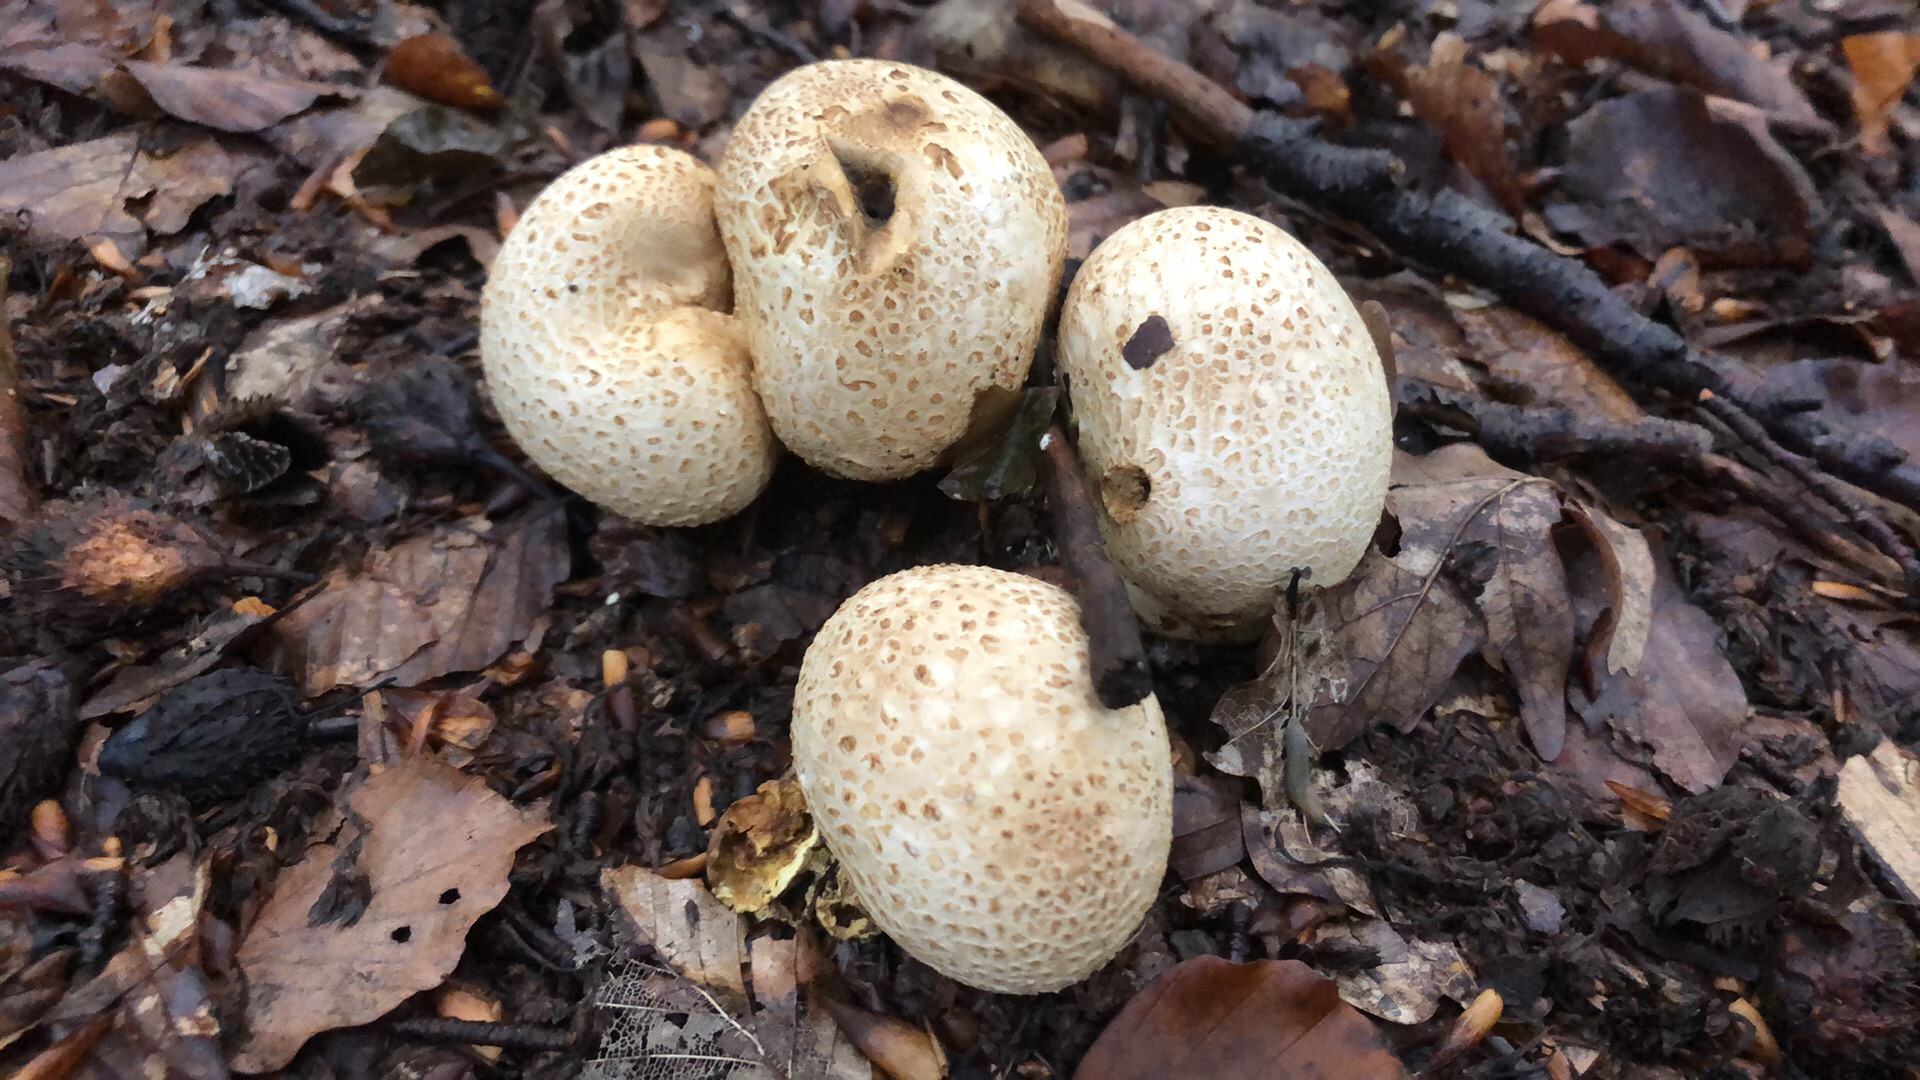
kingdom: Fungi
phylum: Basidiomycota
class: Agaricomycetes
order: Boletales
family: Sclerodermataceae
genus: Scleroderma
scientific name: Scleroderma citrinum
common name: almindelig bruskbold
